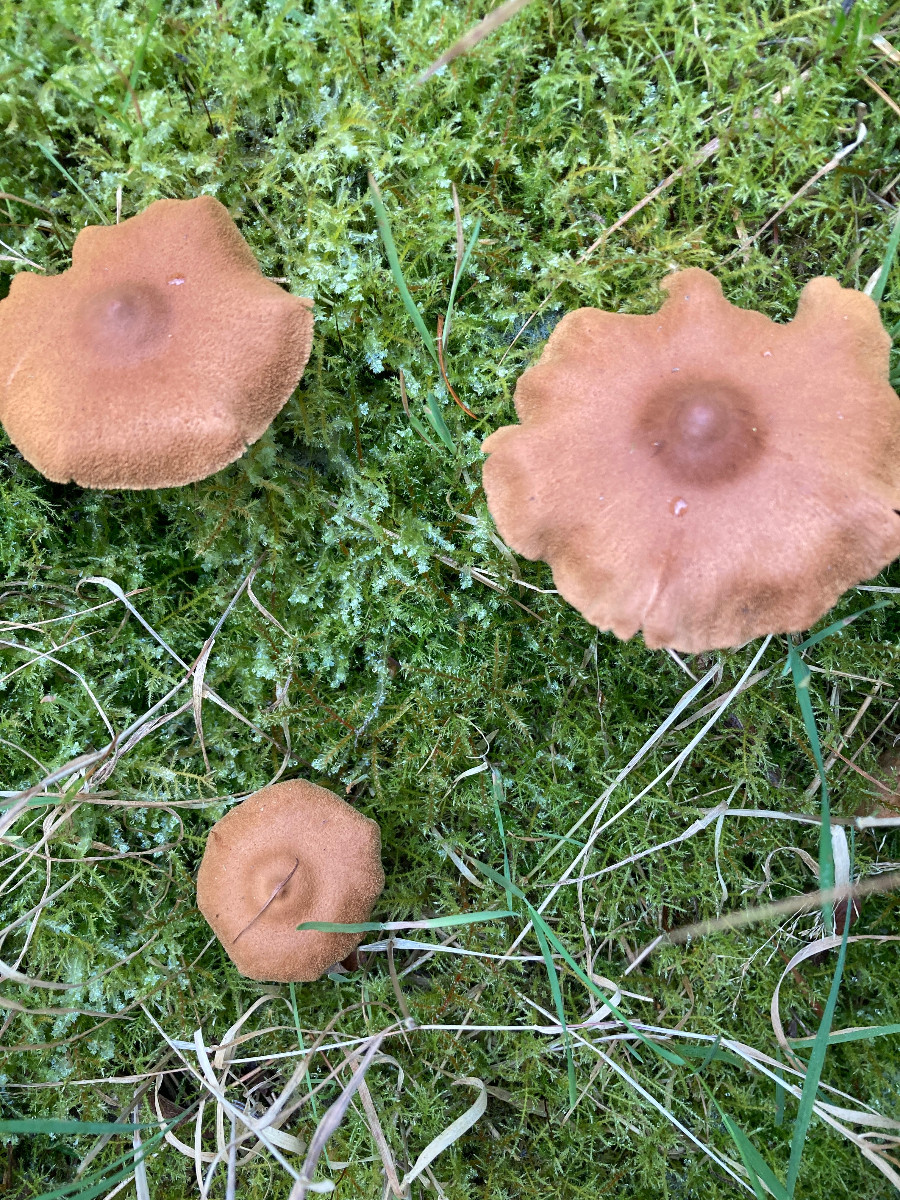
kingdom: Fungi
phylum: Basidiomycota
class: Agaricomycetes
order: Agaricales
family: Cortinariaceae
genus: Cortinarius
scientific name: Cortinarius
